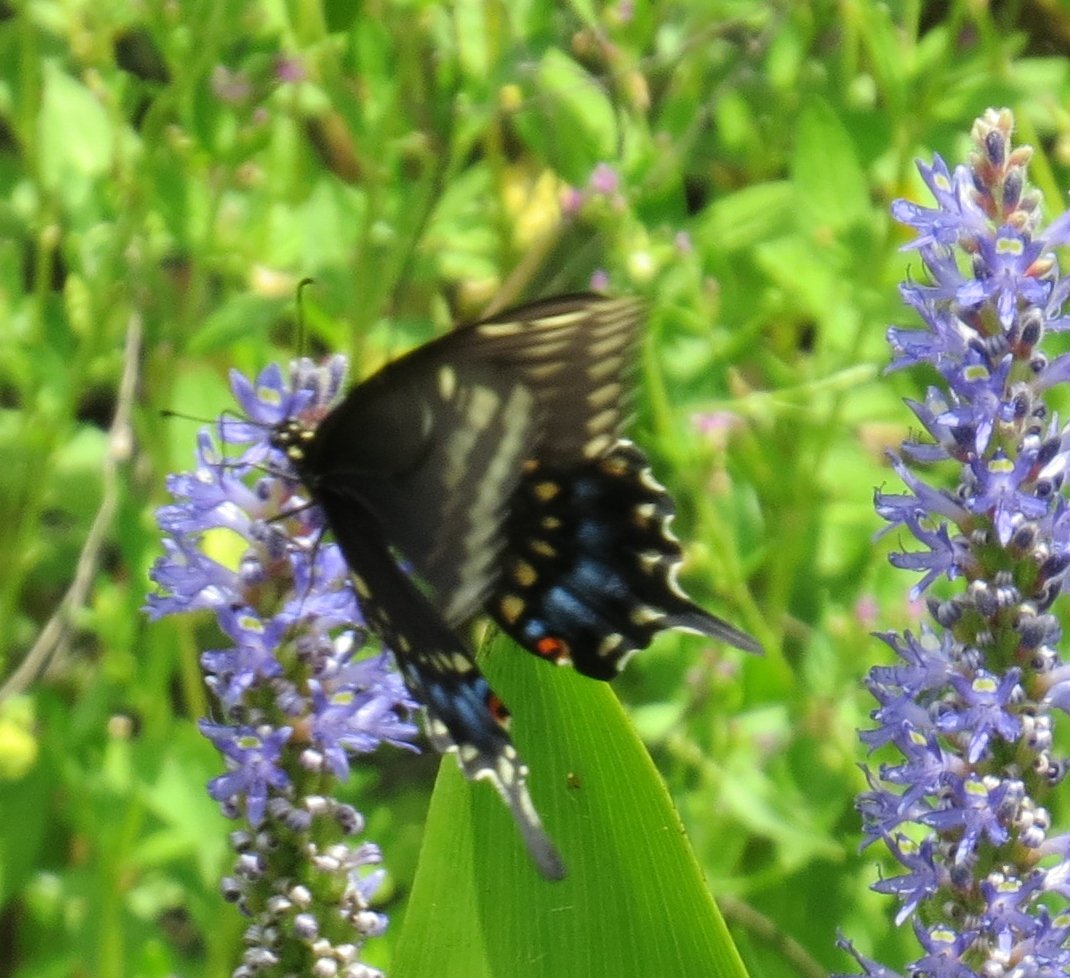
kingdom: Animalia
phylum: Arthropoda
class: Insecta
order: Lepidoptera
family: Papilionidae
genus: Papilio
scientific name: Papilio polyxenes
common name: Black Swallowtail
